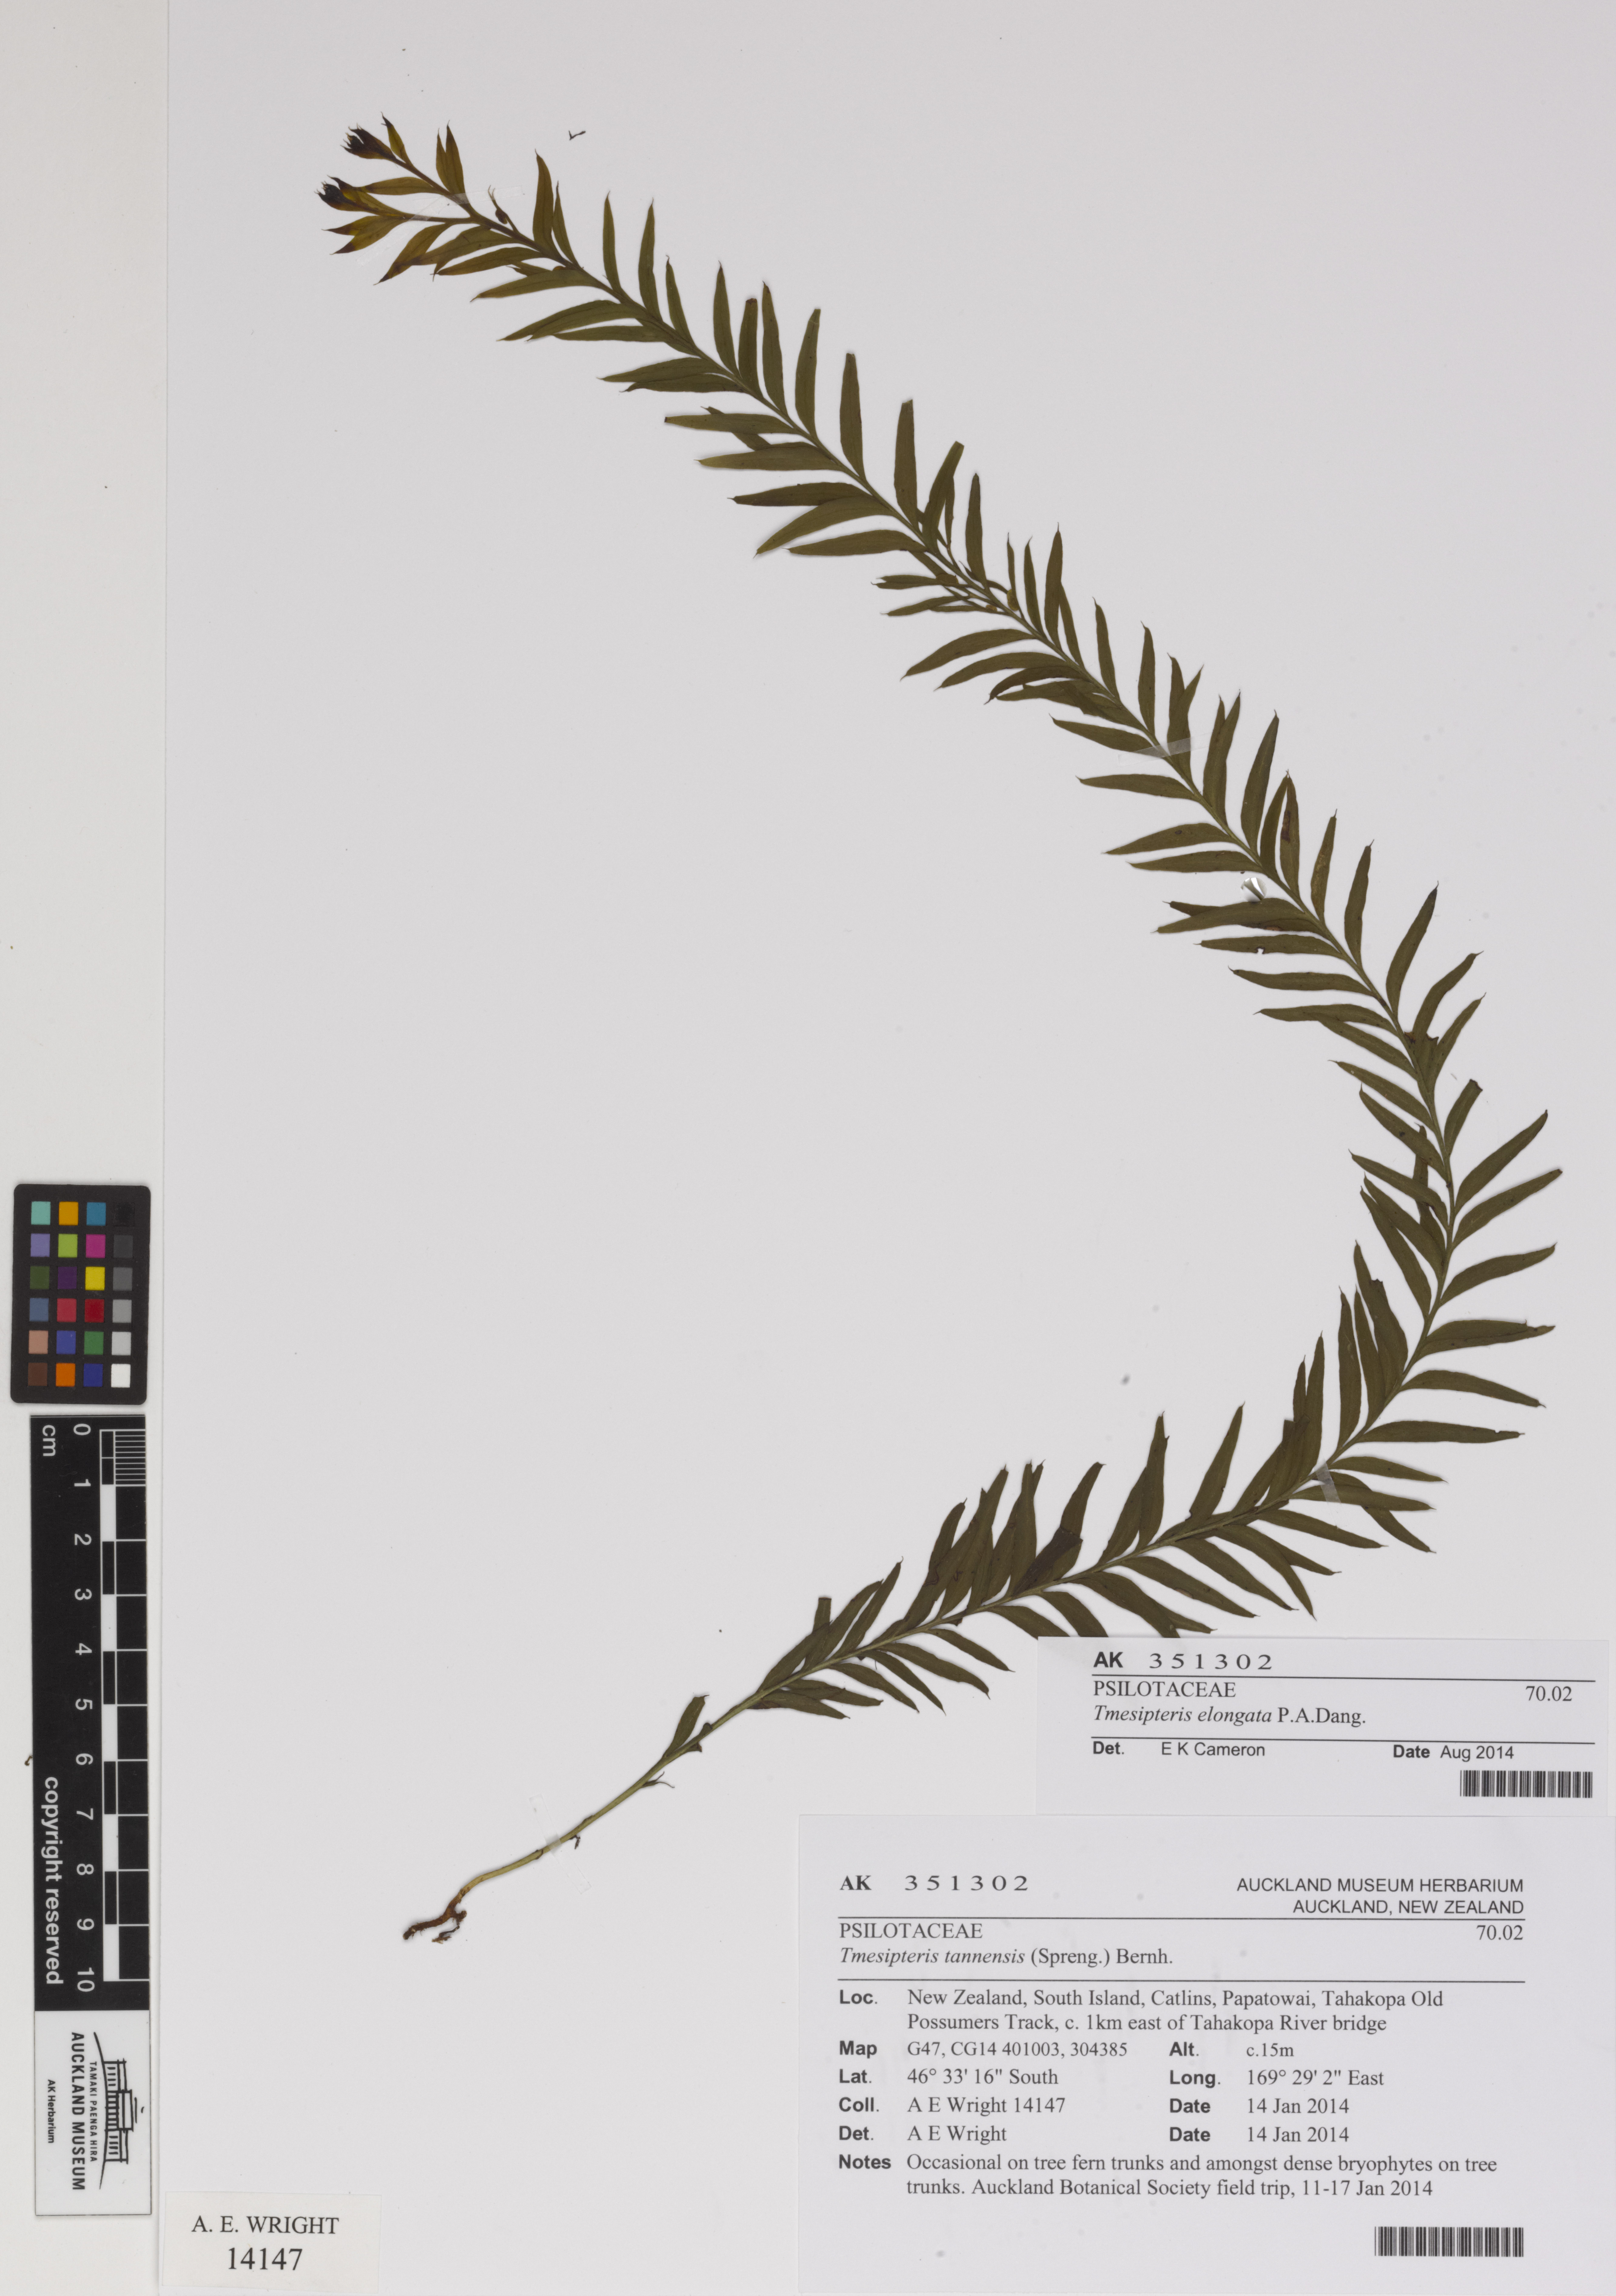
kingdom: Plantae
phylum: Tracheophyta
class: Polypodiopsida
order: Psilotales
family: Psilotaceae
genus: Tmesipteris
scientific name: Tmesipteris elongata
